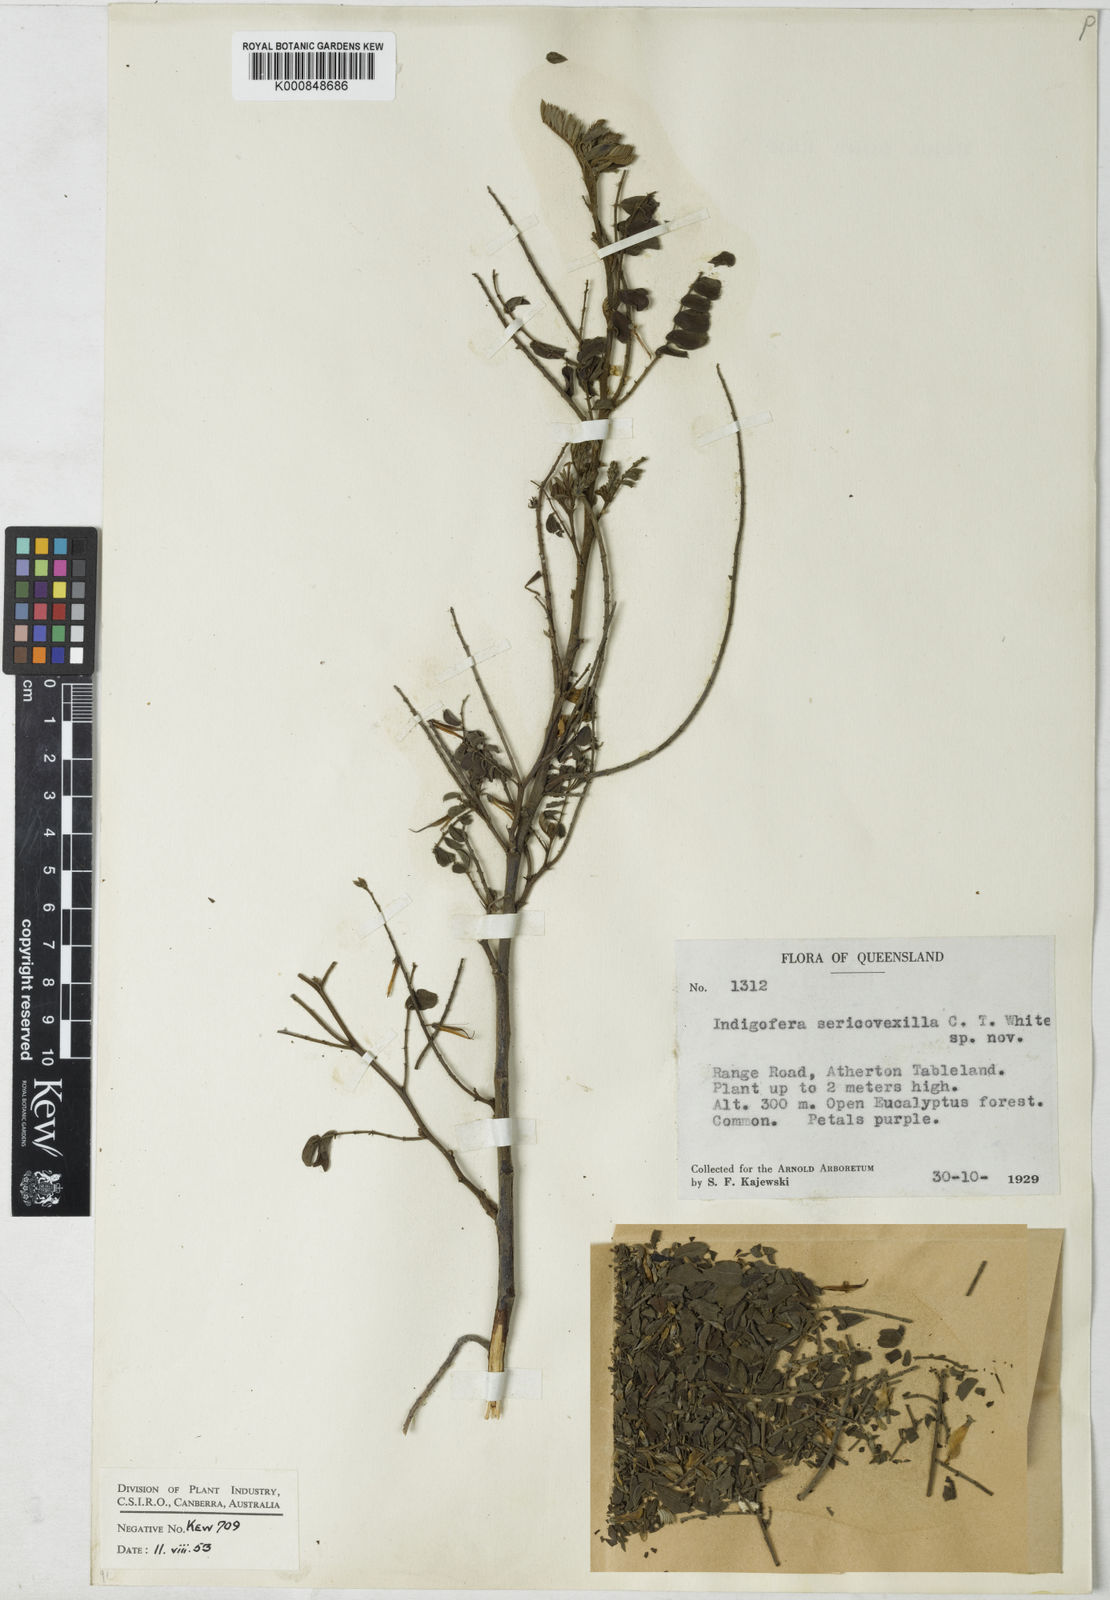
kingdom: Plantae
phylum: Tracheophyta
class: Magnoliopsida
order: Fabales
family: Fabaceae
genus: Indigofera
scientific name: Indigofera sericovexilla
